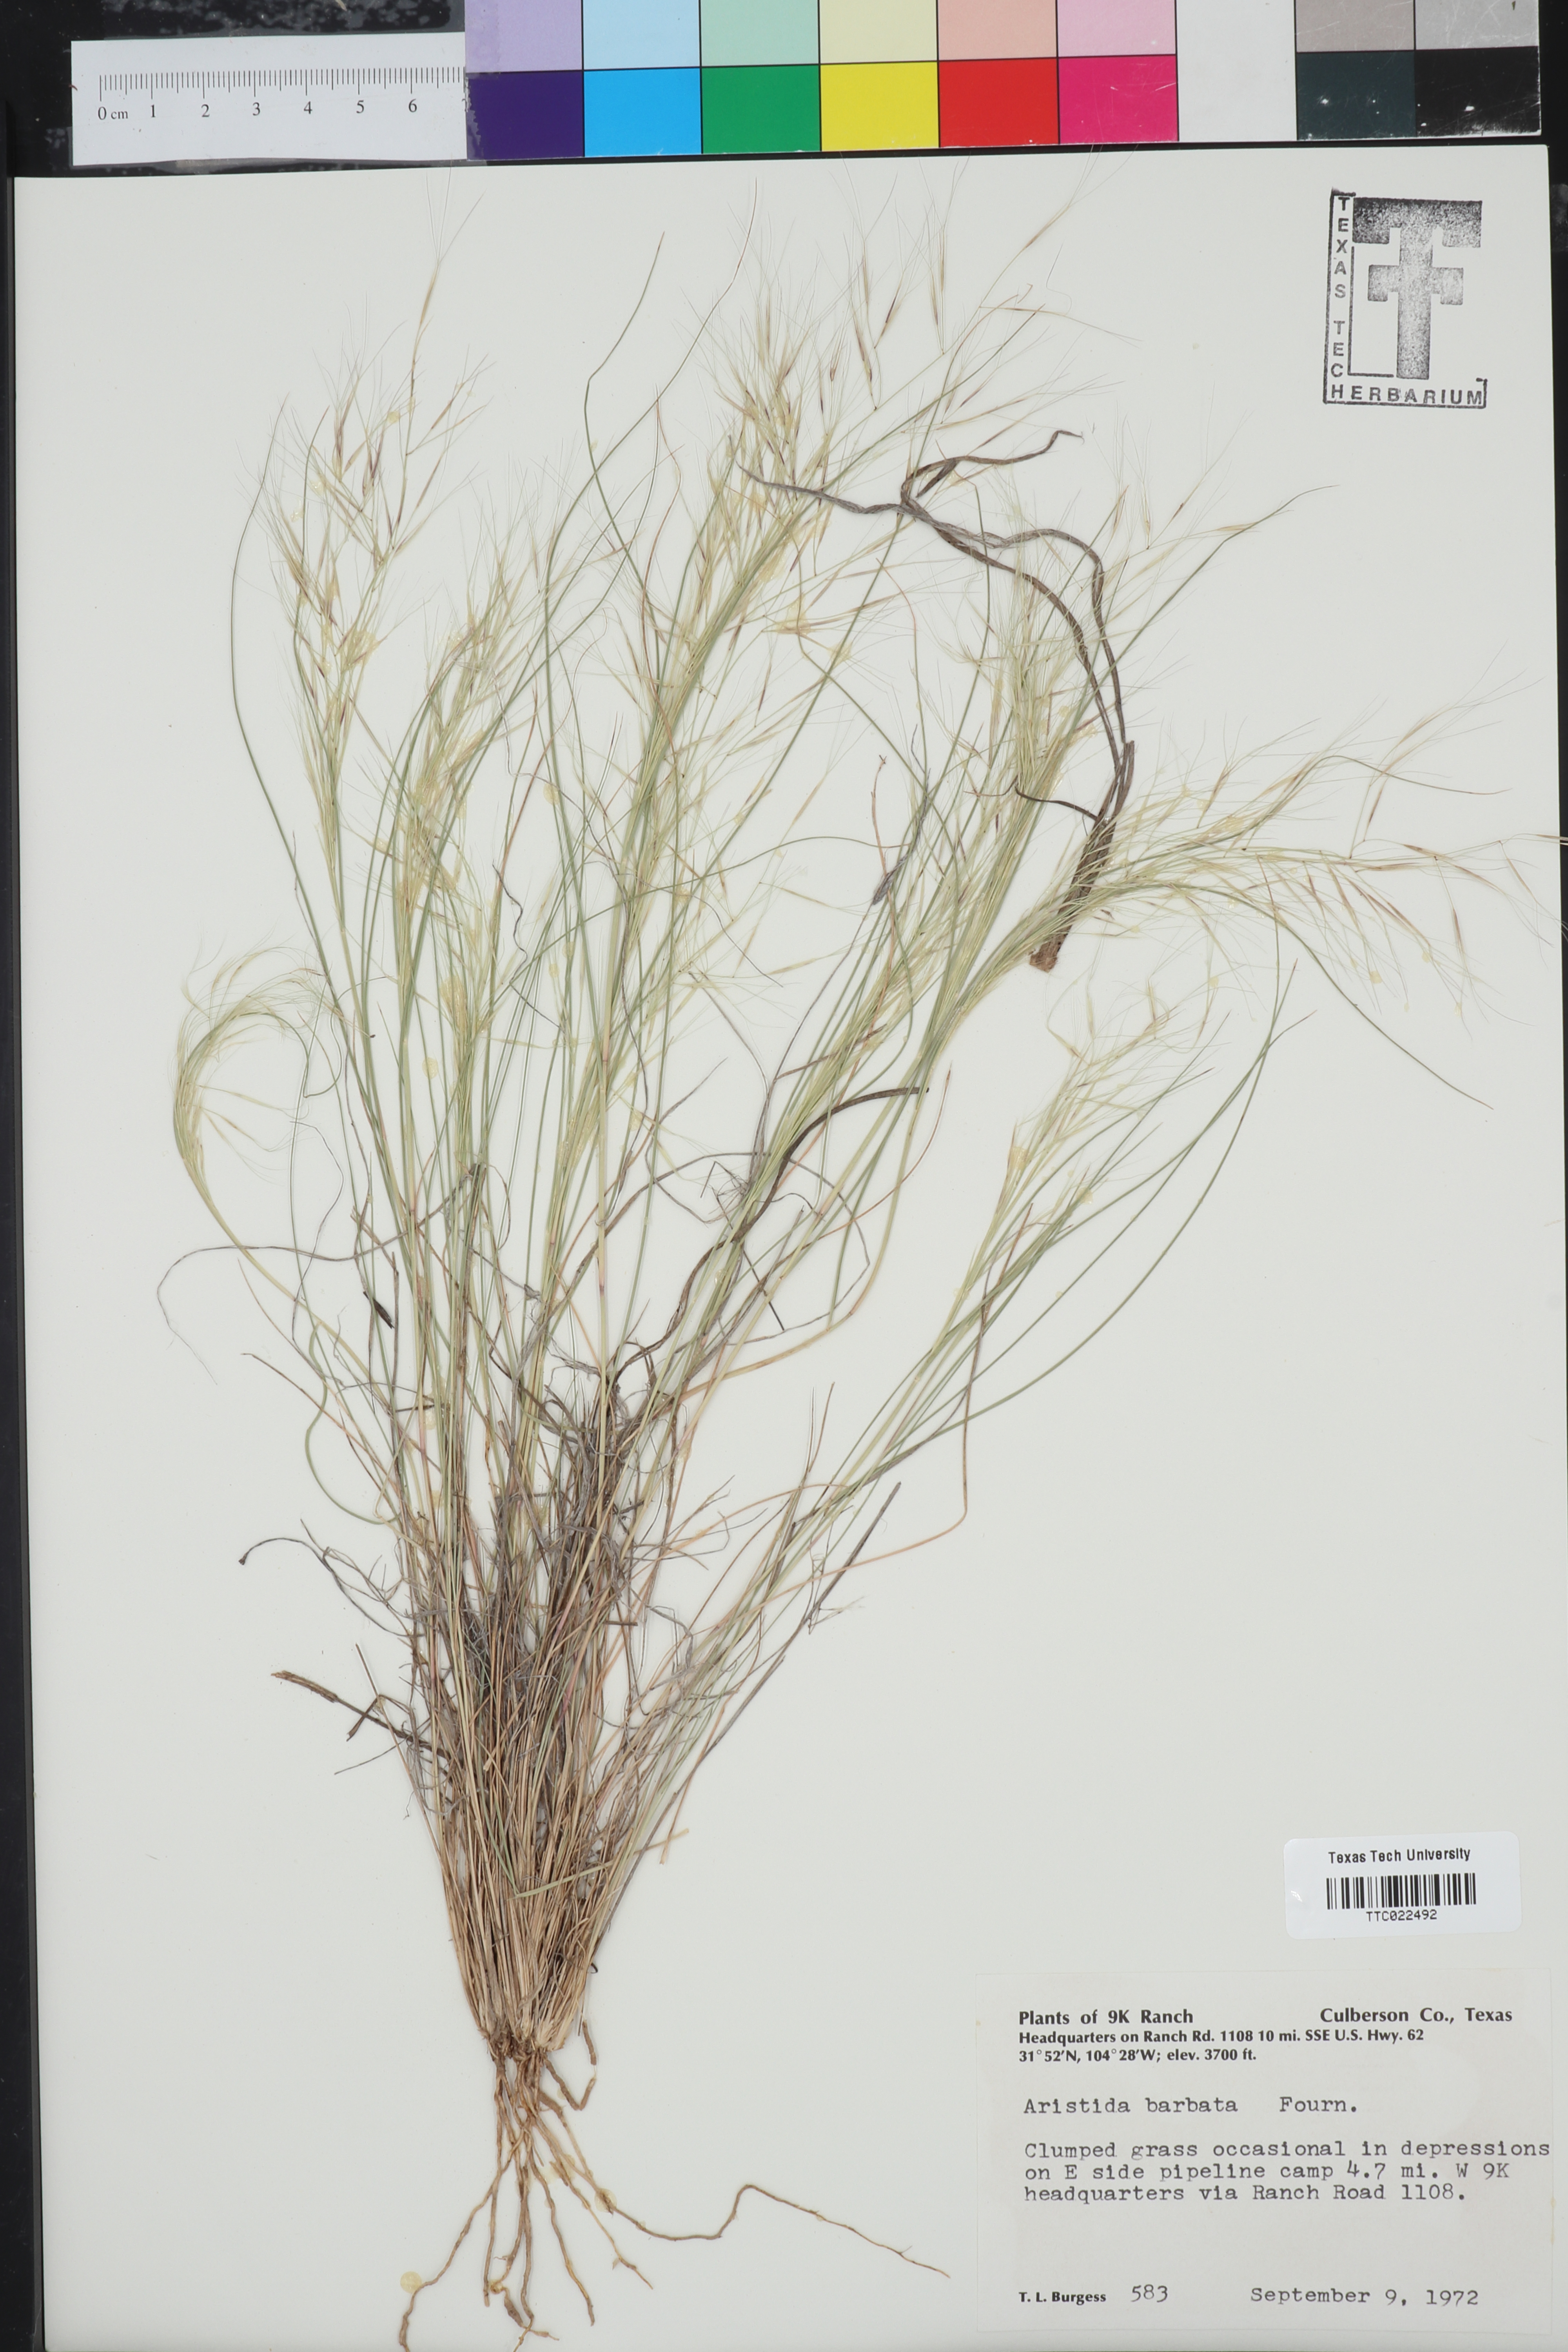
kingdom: Plantae
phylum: Tracheophyta
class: Liliopsida
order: Poales
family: Poaceae
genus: Aristida
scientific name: Aristida barbata
